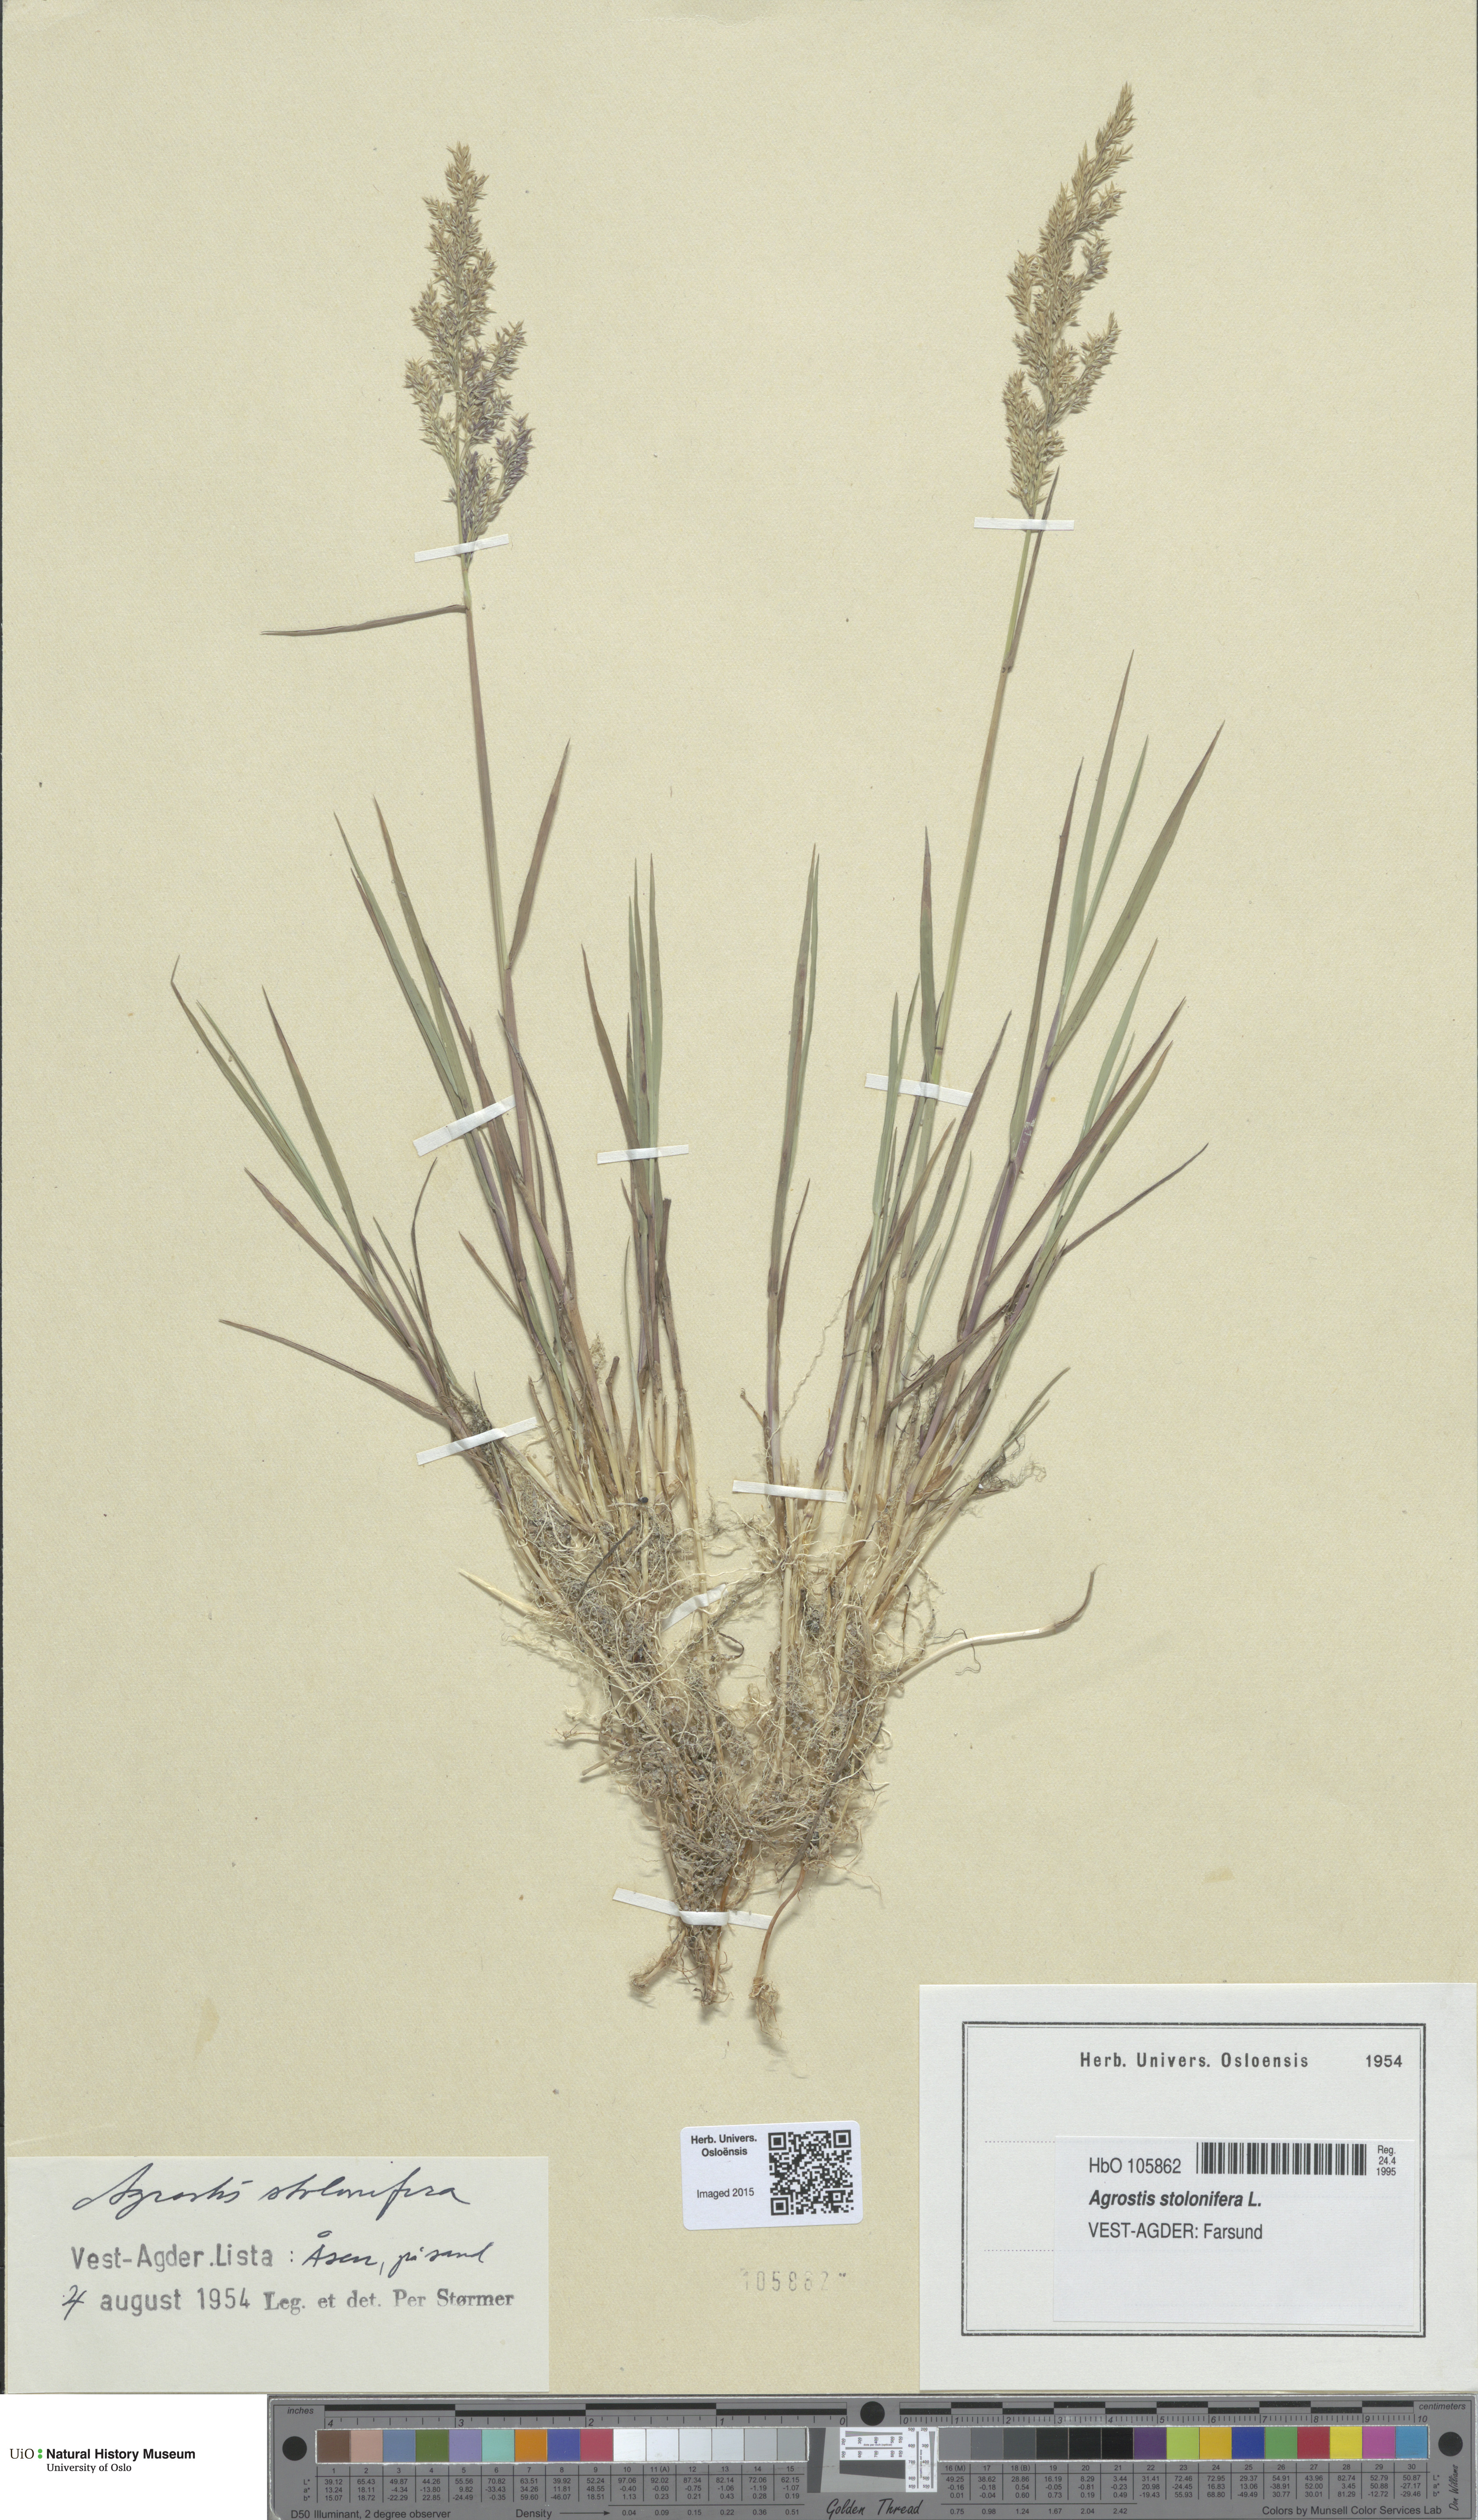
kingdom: Plantae
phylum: Tracheophyta
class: Liliopsida
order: Poales
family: Poaceae
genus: Agrostis
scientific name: Agrostis stolonifera
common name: Creeping bentgrass
